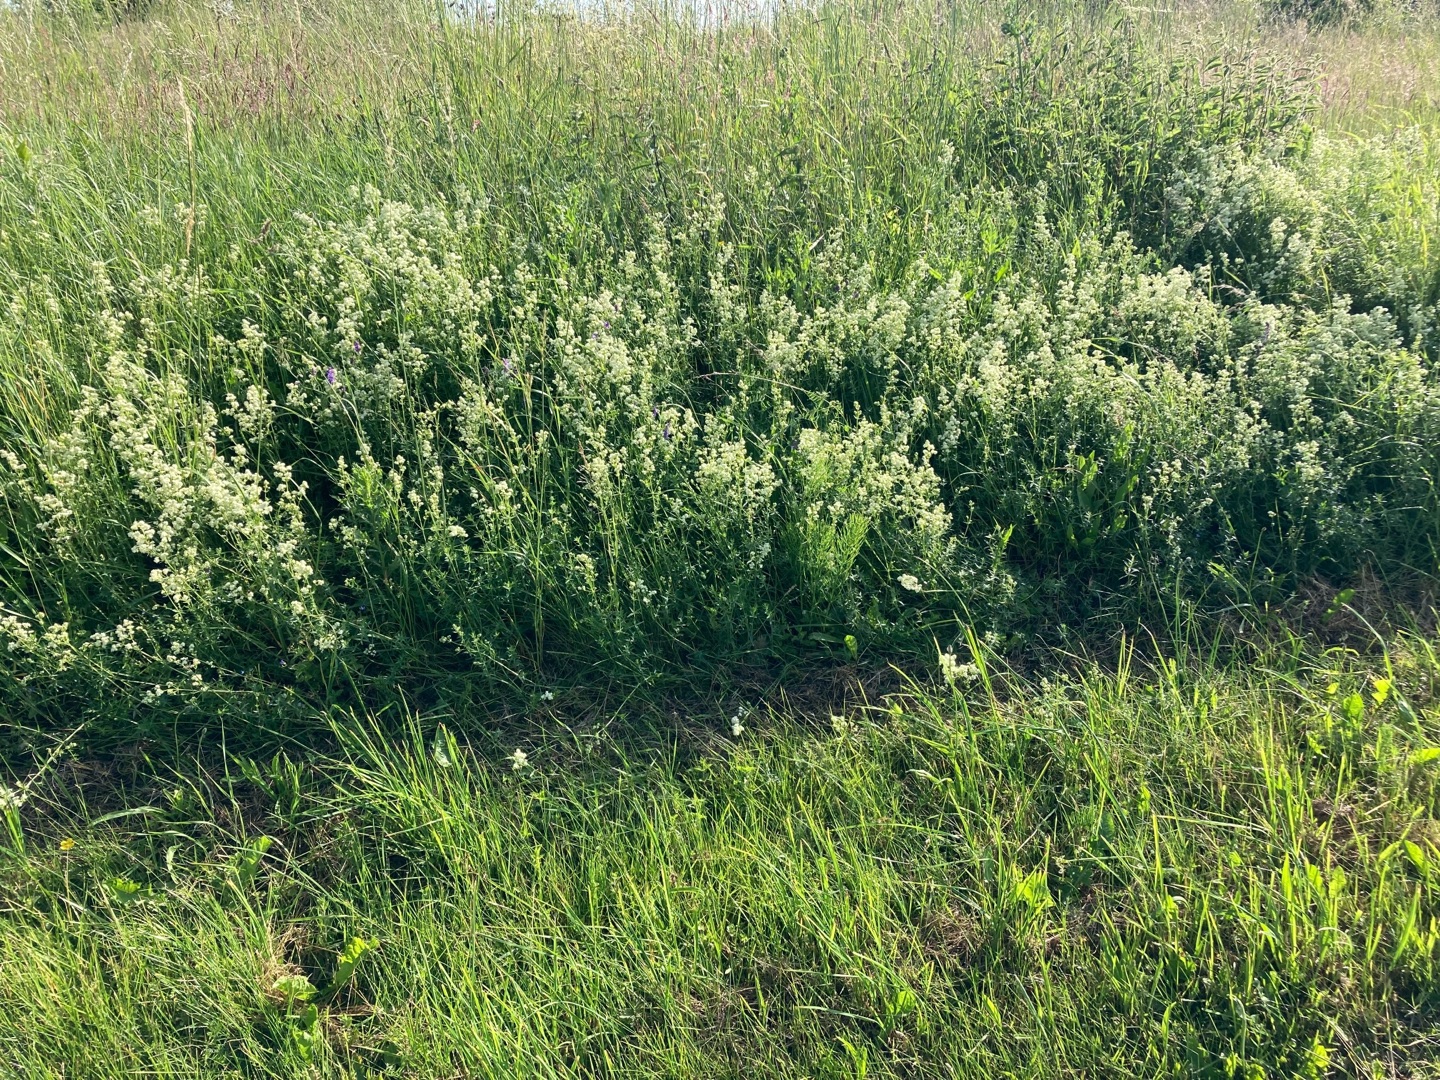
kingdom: Plantae
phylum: Tracheophyta
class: Magnoliopsida
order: Gentianales
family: Rubiaceae
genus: Galium
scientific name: Galium boreale
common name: Trenervet snerre
